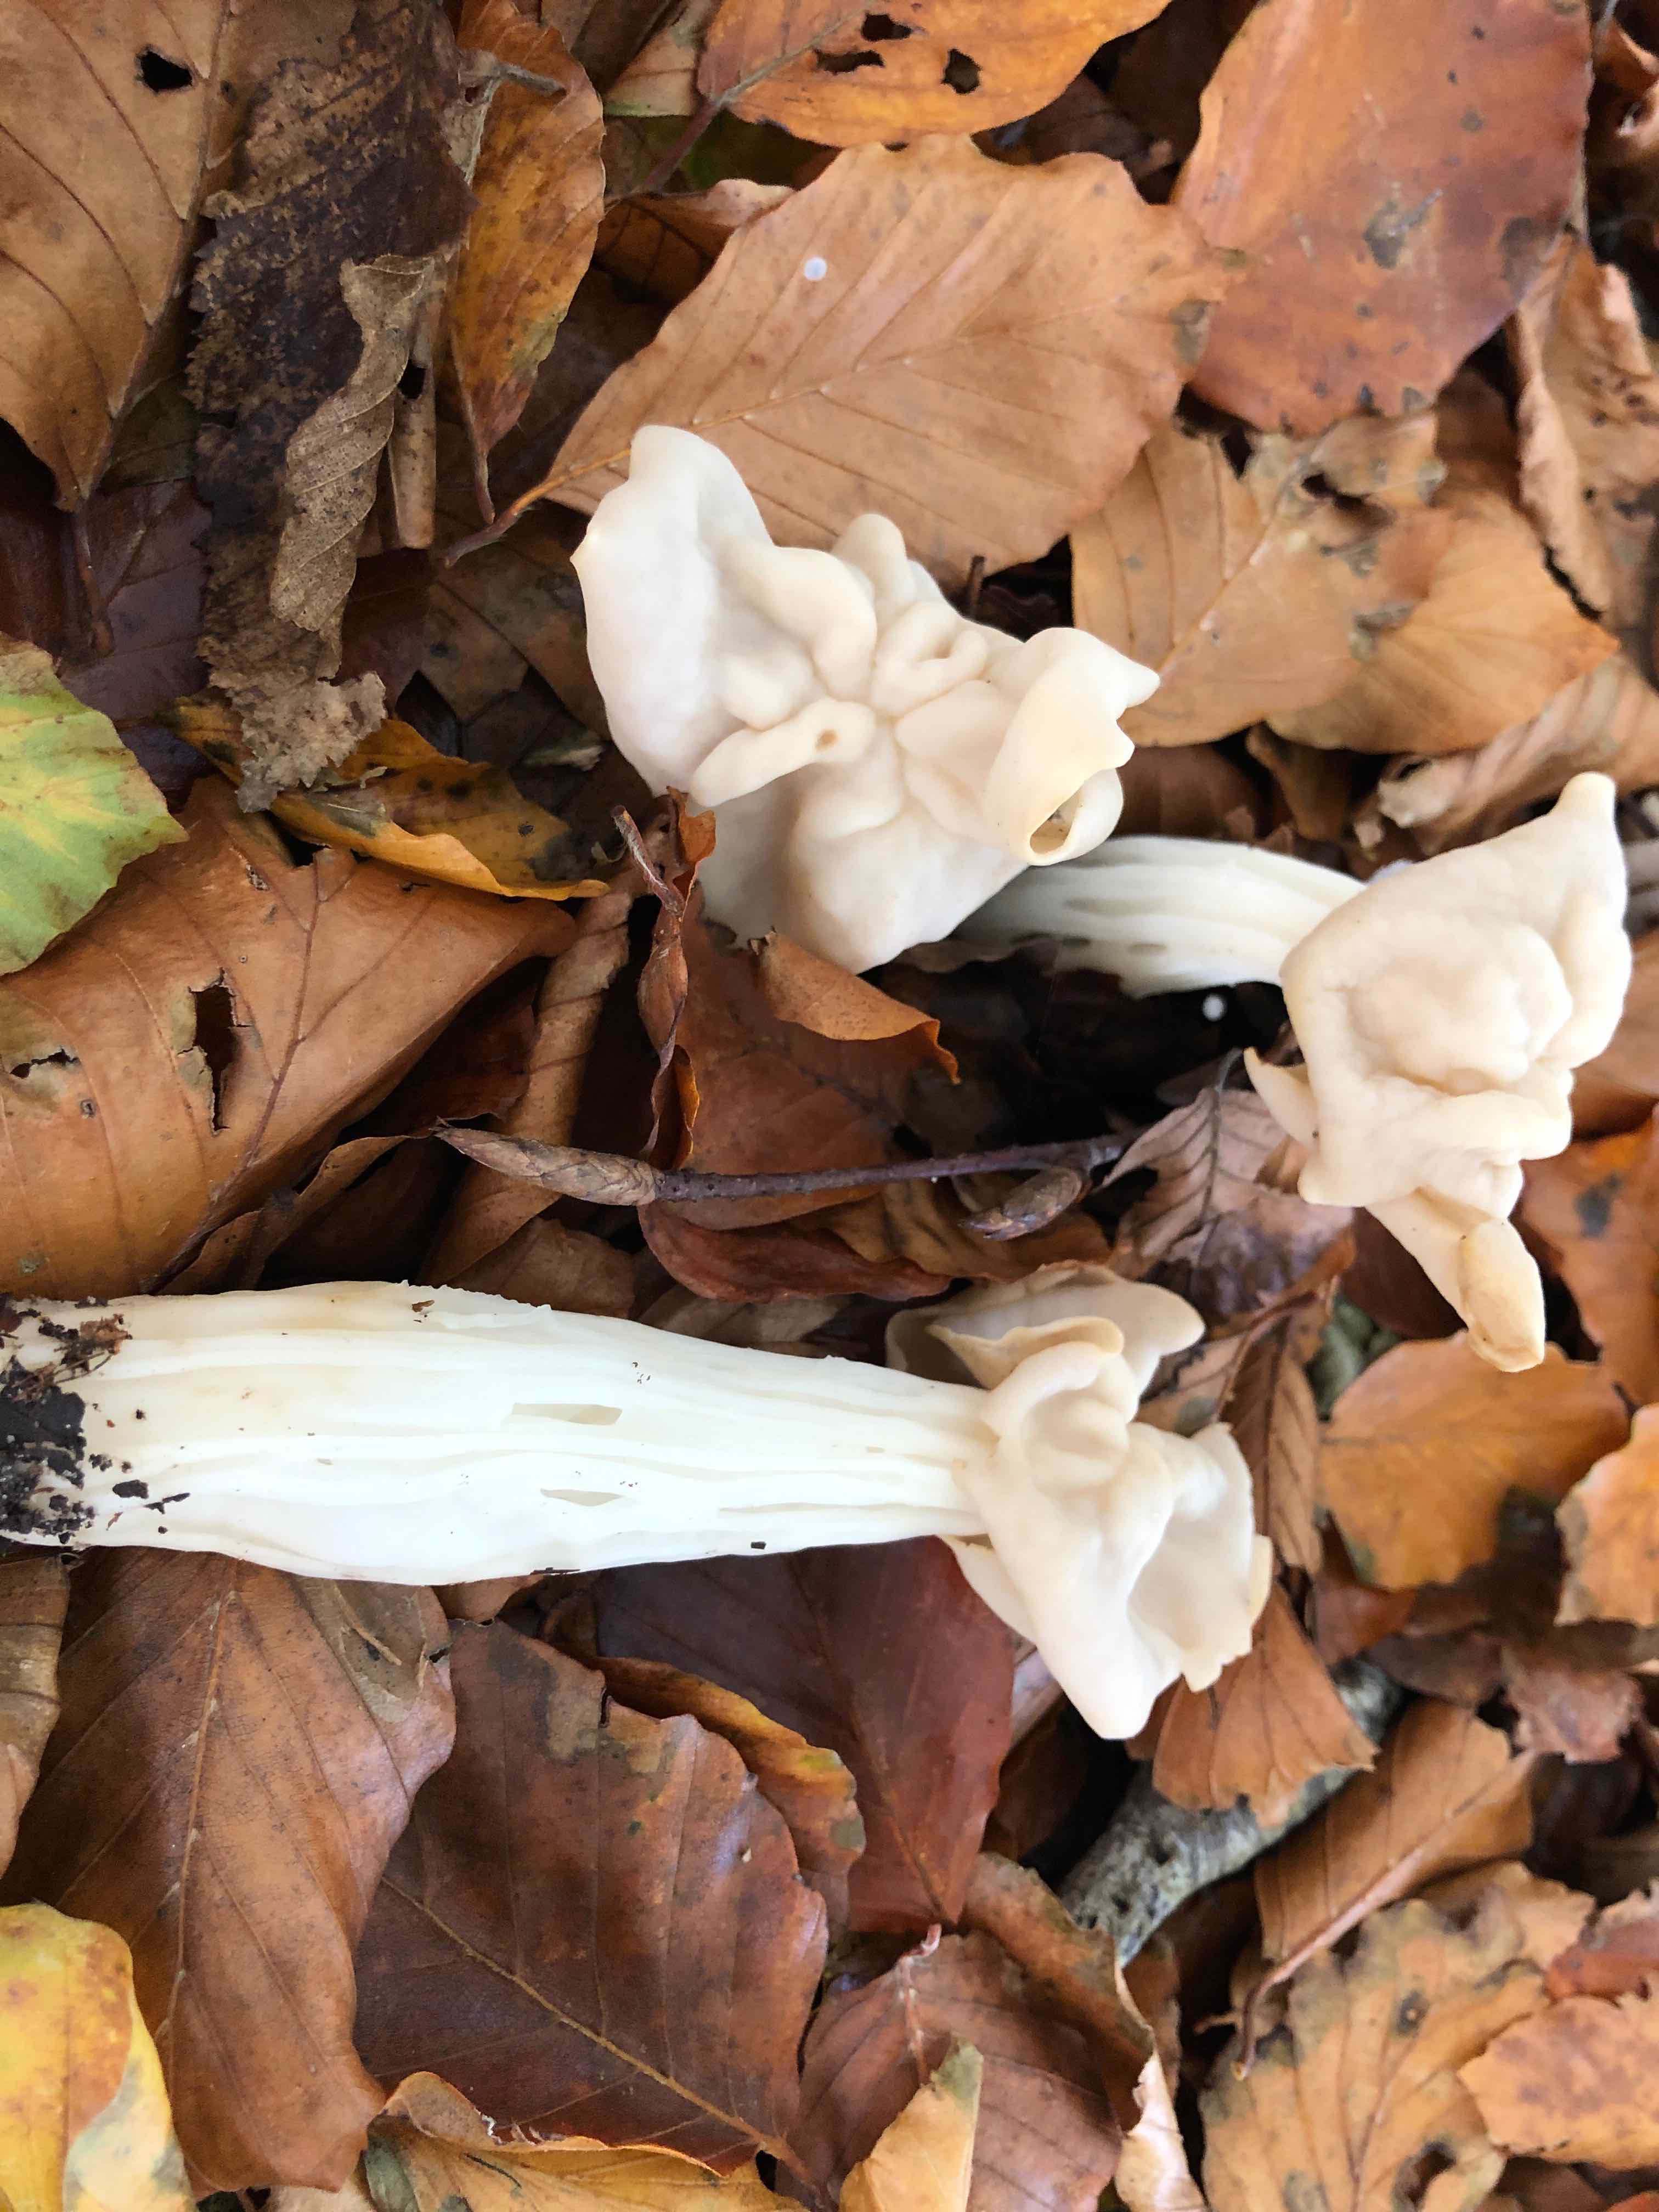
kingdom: Fungi
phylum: Ascomycota
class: Pezizomycetes
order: Pezizales
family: Helvellaceae
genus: Helvella
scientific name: Helvella crispa
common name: kruset foldhat
